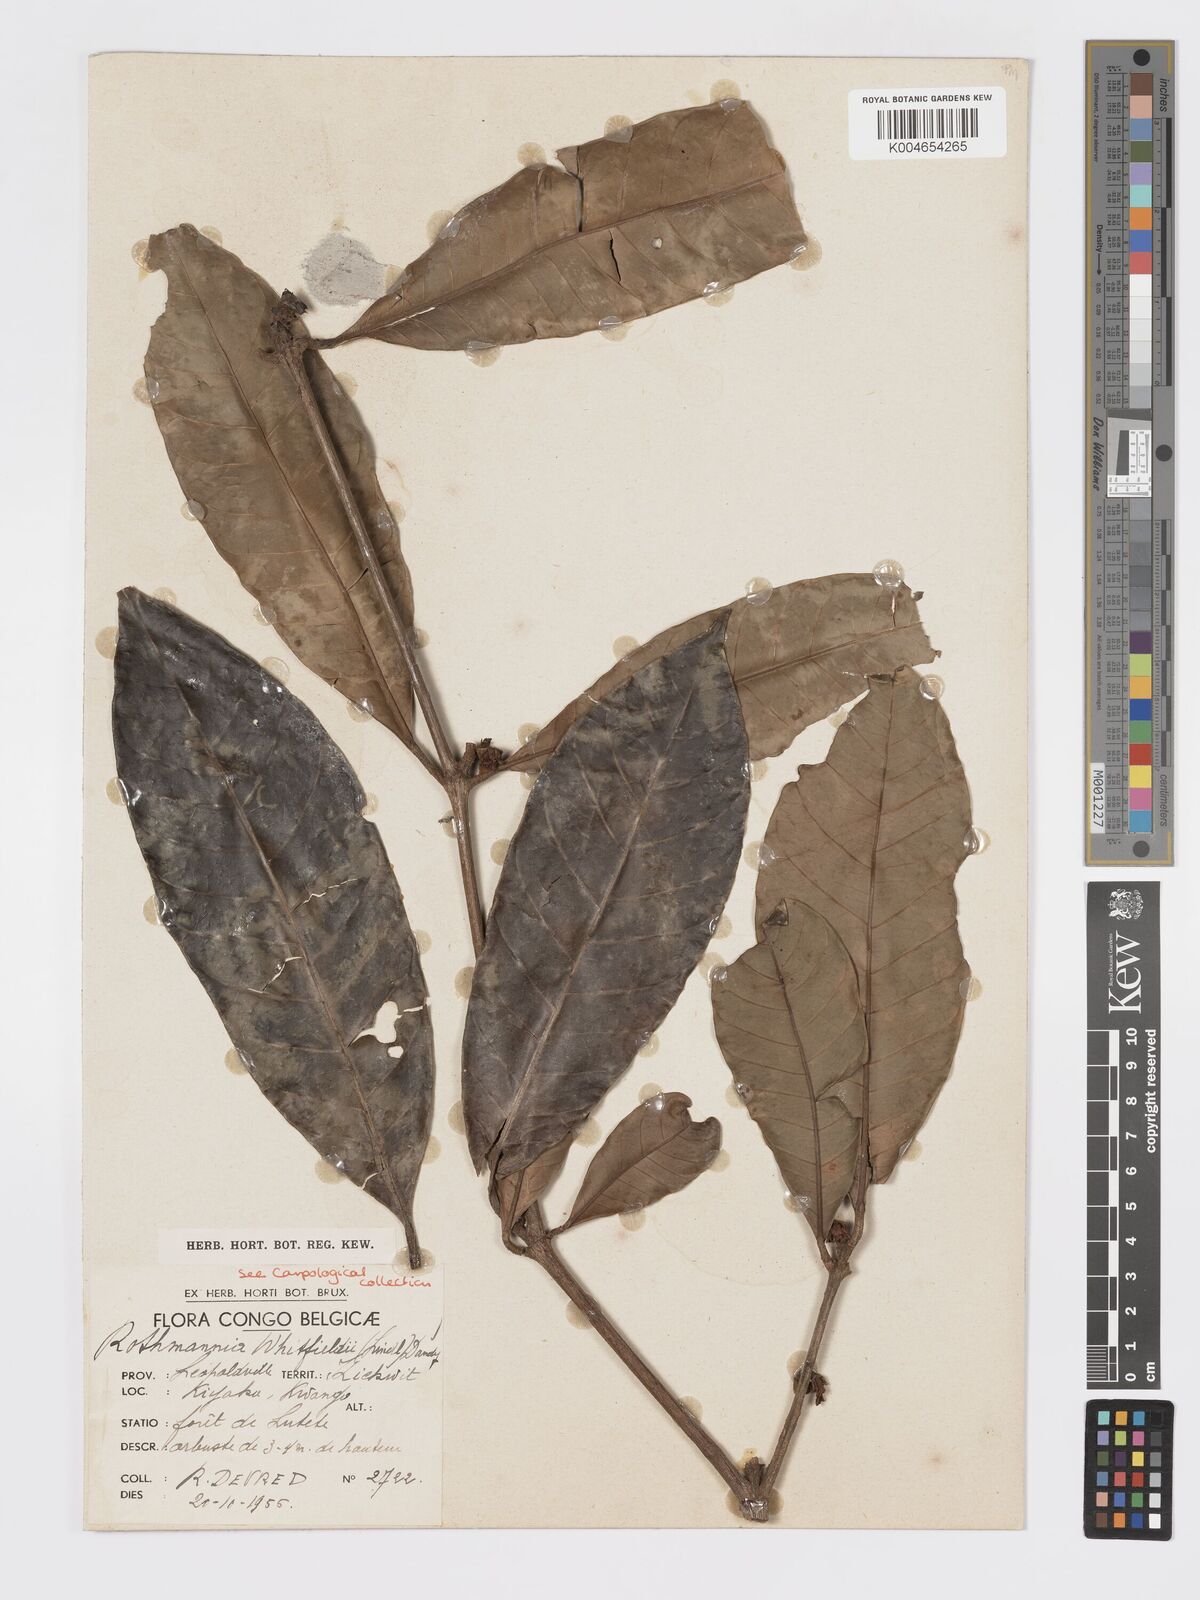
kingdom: Plantae
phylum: Tracheophyta
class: Magnoliopsida
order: Gentianales
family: Rubiaceae
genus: Rothmannia
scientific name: Rothmannia whitfieldii
